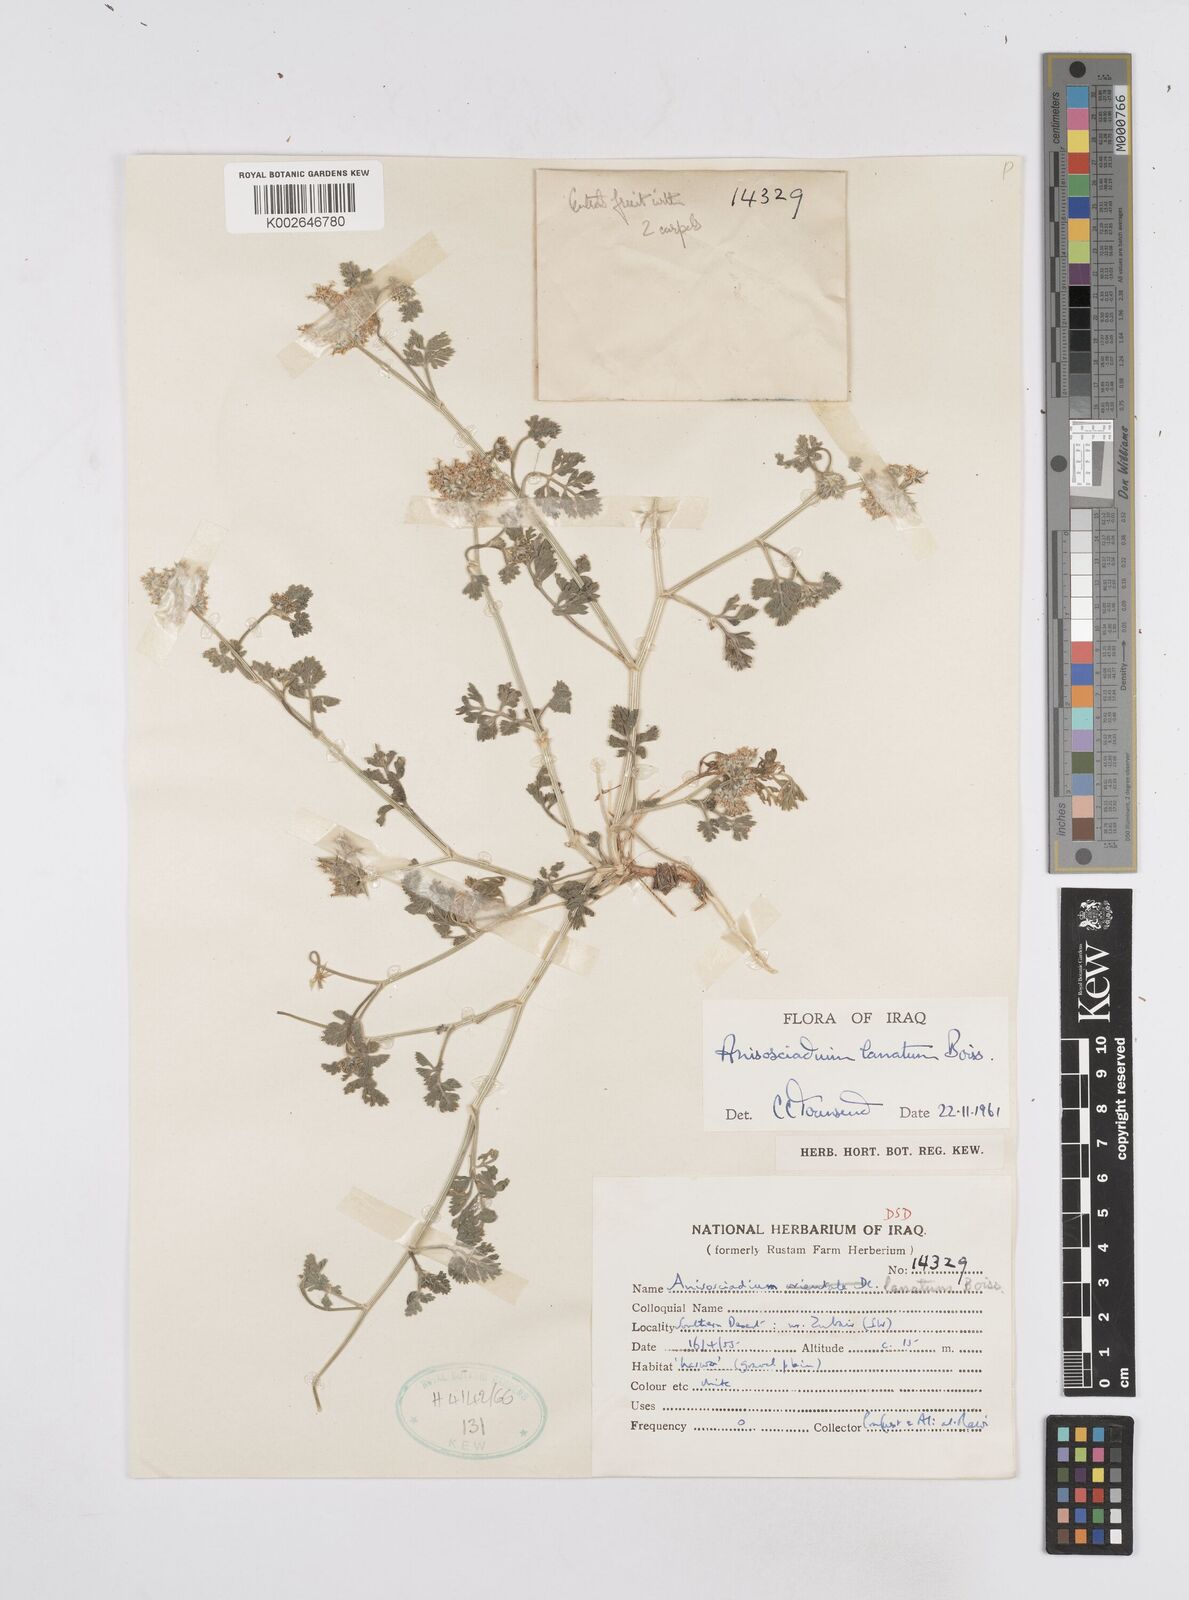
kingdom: Plantae
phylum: Tracheophyta
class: Magnoliopsida
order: Apiales
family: Apiaceae
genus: Anisosciadium
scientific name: Anisosciadium lanatum
